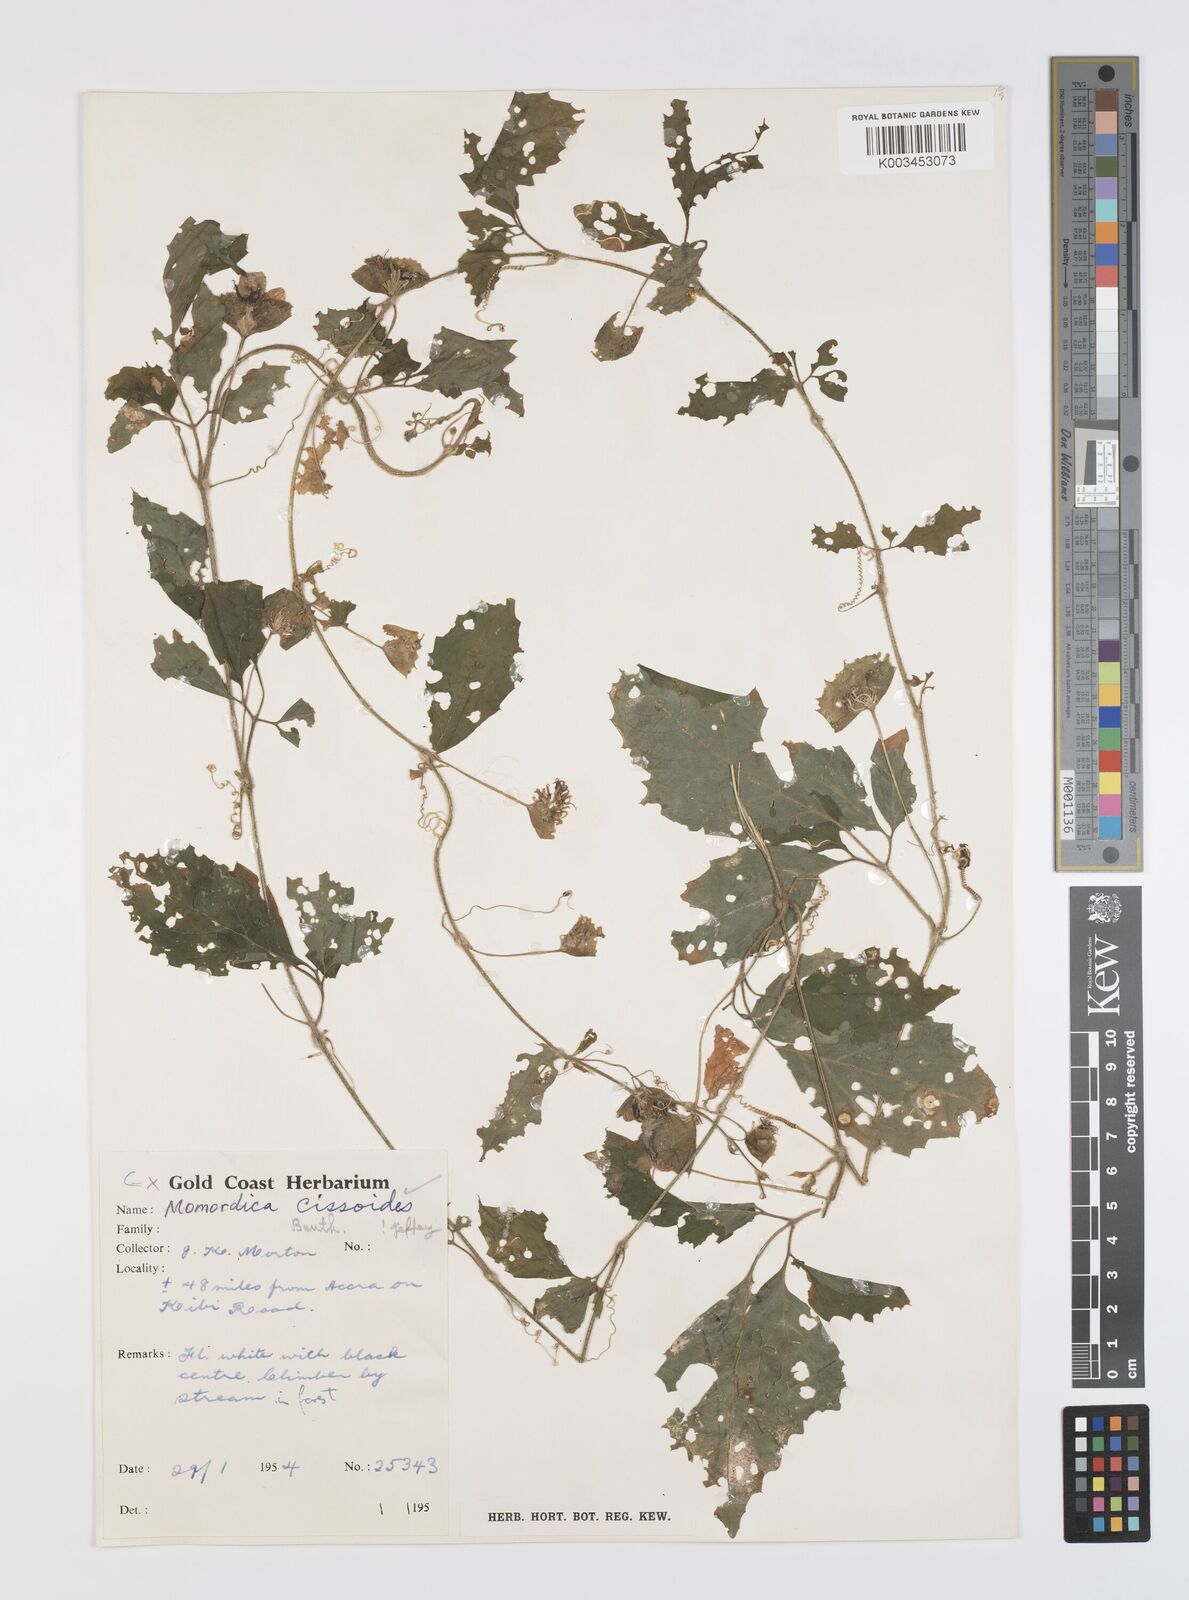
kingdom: Plantae
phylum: Tracheophyta
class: Magnoliopsida
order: Cucurbitales
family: Cucurbitaceae
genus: Momordica
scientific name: Momordica cissoides
